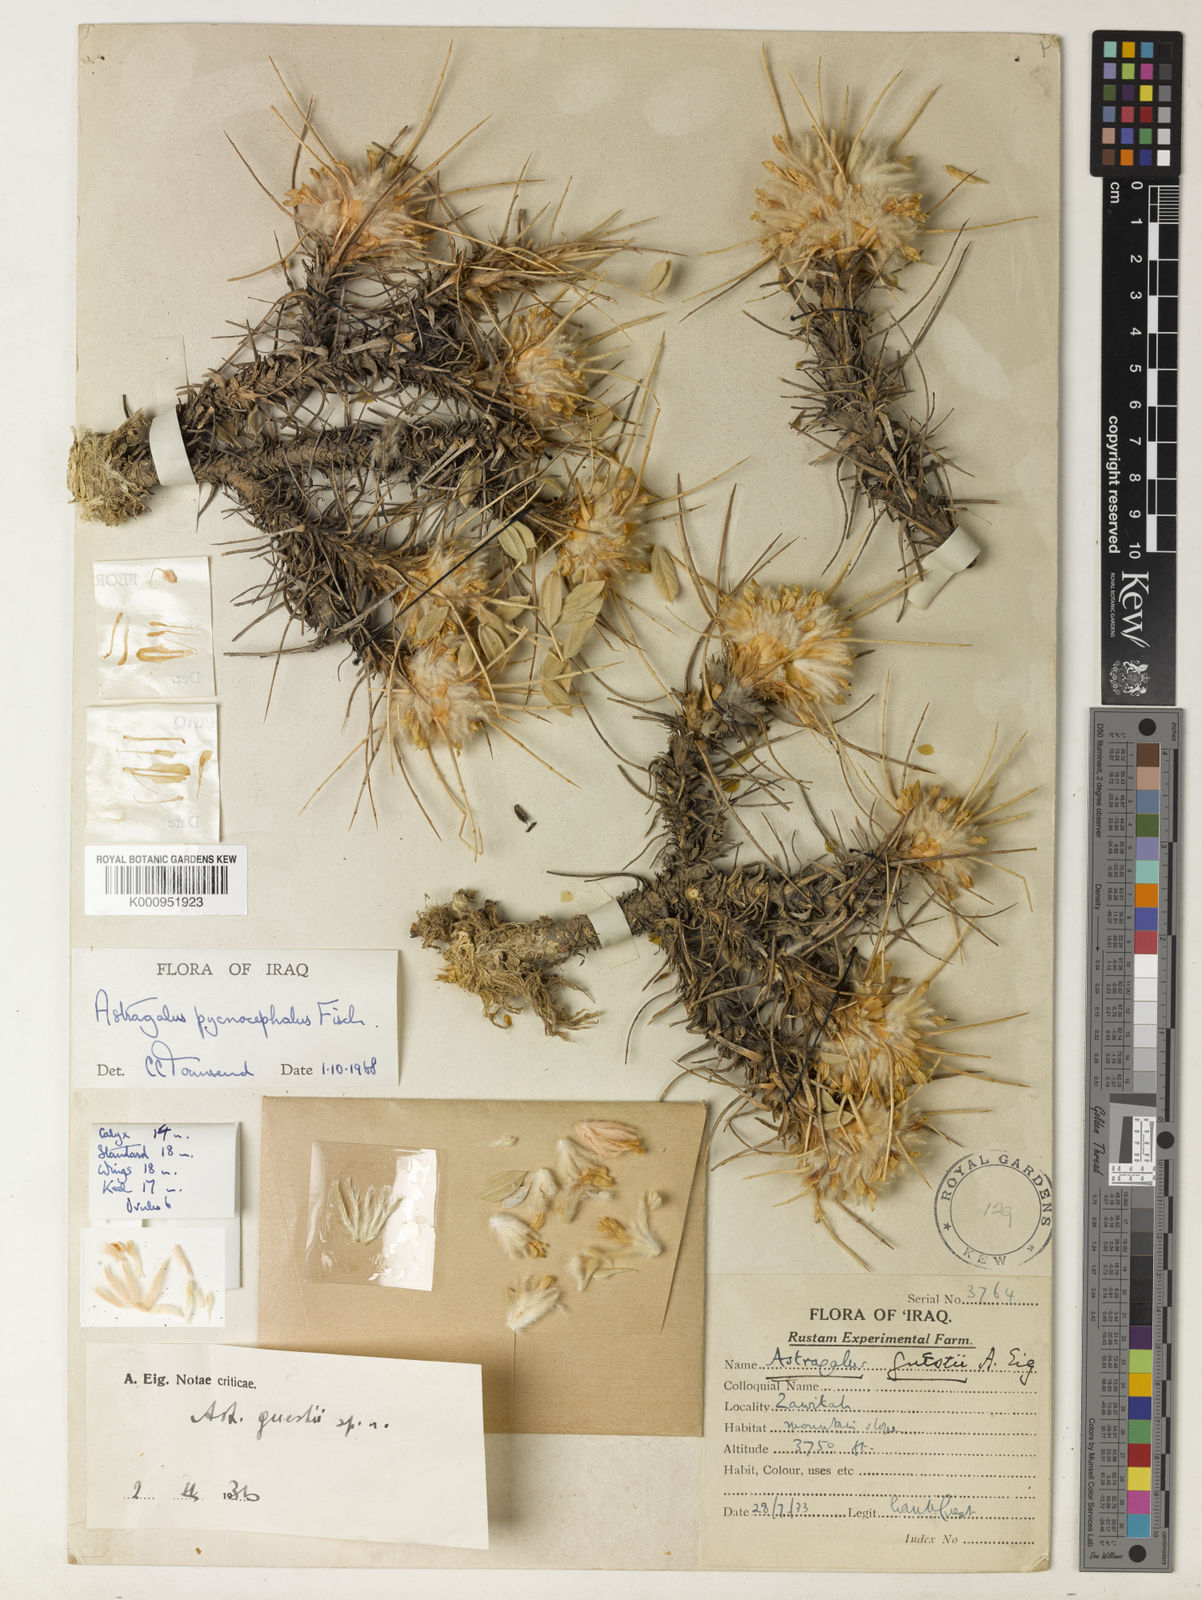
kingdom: Plantae
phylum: Tracheophyta
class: Magnoliopsida
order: Fabales
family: Fabaceae
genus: Astragalus
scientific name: Astragalus pycnocephalus
